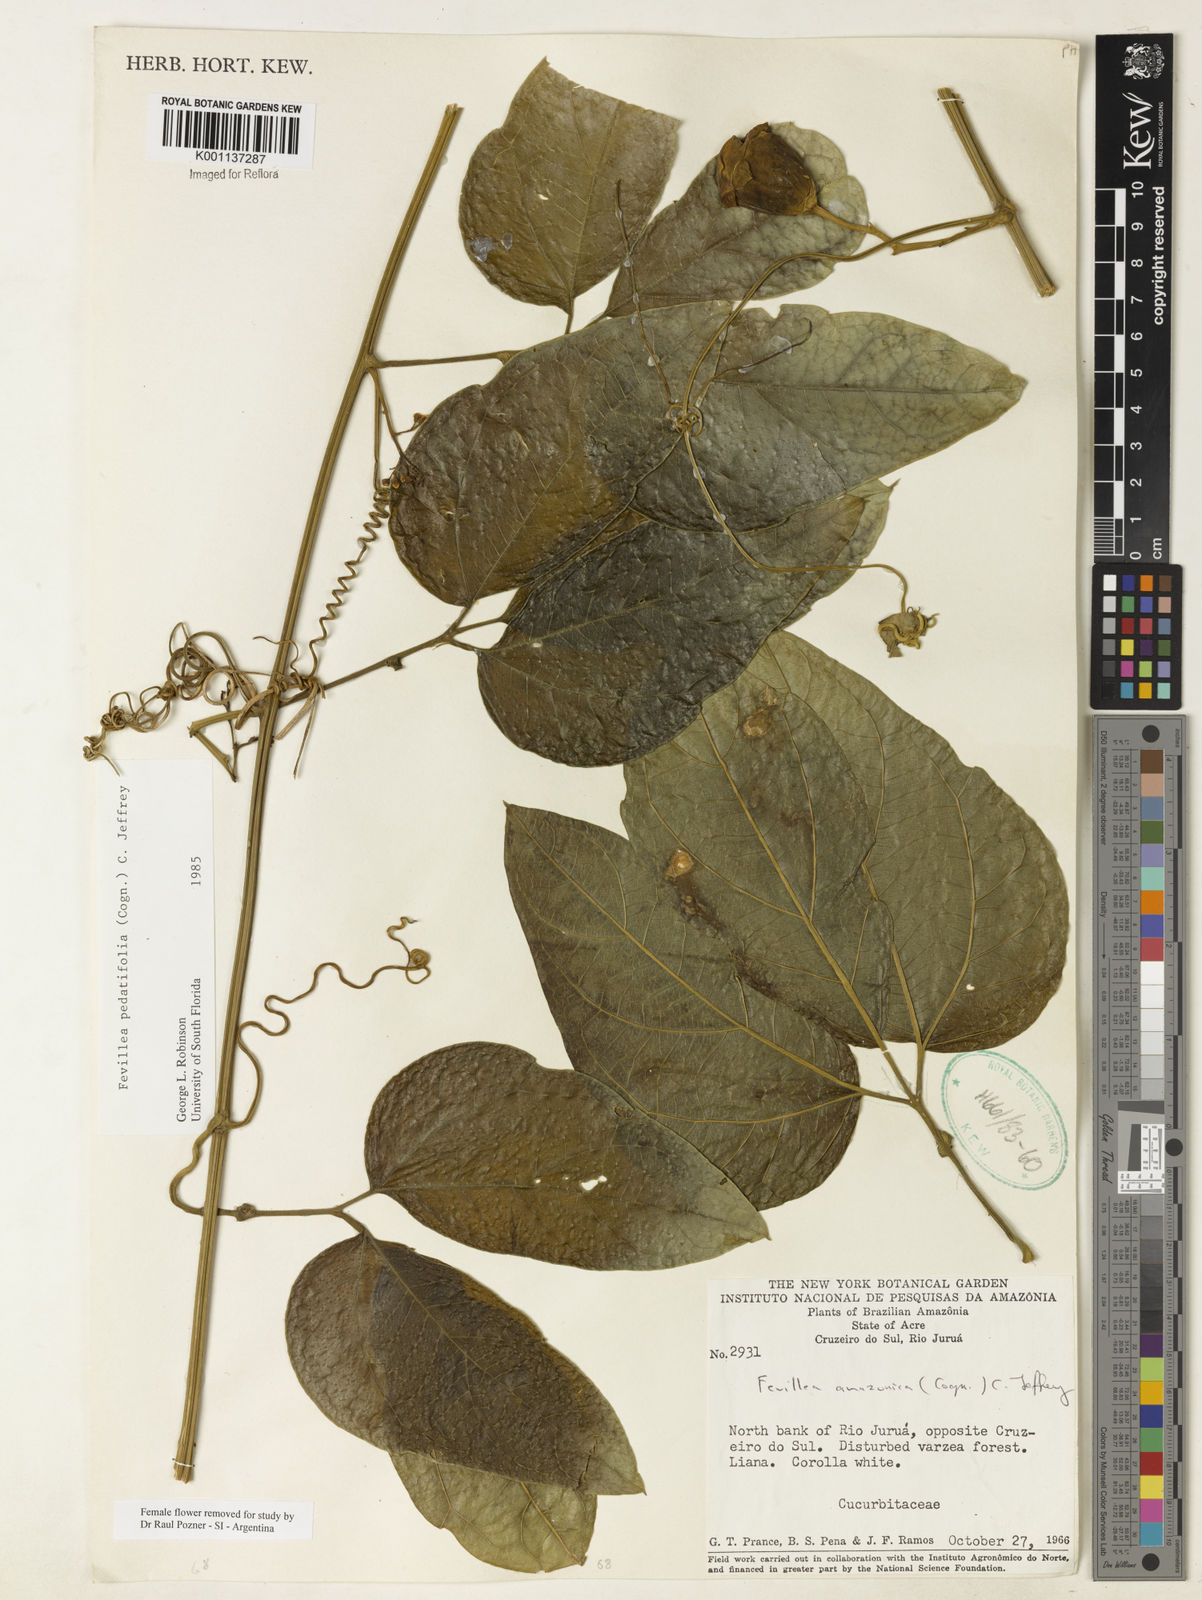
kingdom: Plantae
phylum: Tracheophyta
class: Magnoliopsida
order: Cucurbitales
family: Cucurbitaceae
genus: Fevillea
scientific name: Fevillea pedatifolia
